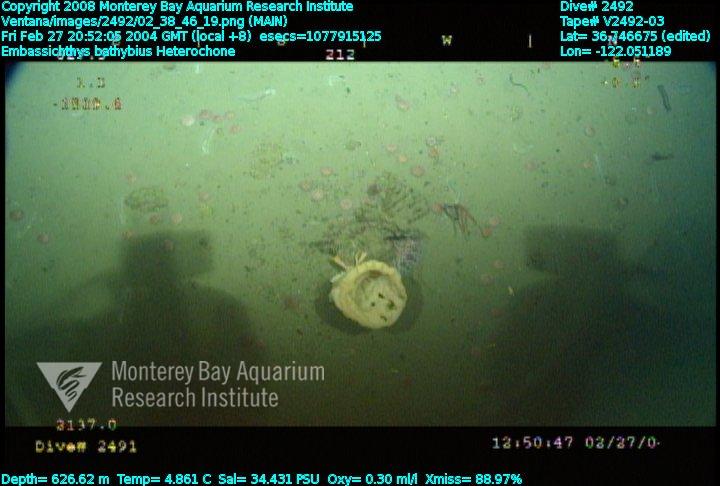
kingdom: Animalia
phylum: Porifera
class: Hexactinellida
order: Sceptrulophora
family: Aphrocallistidae
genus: Heterochone
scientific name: Heterochone
